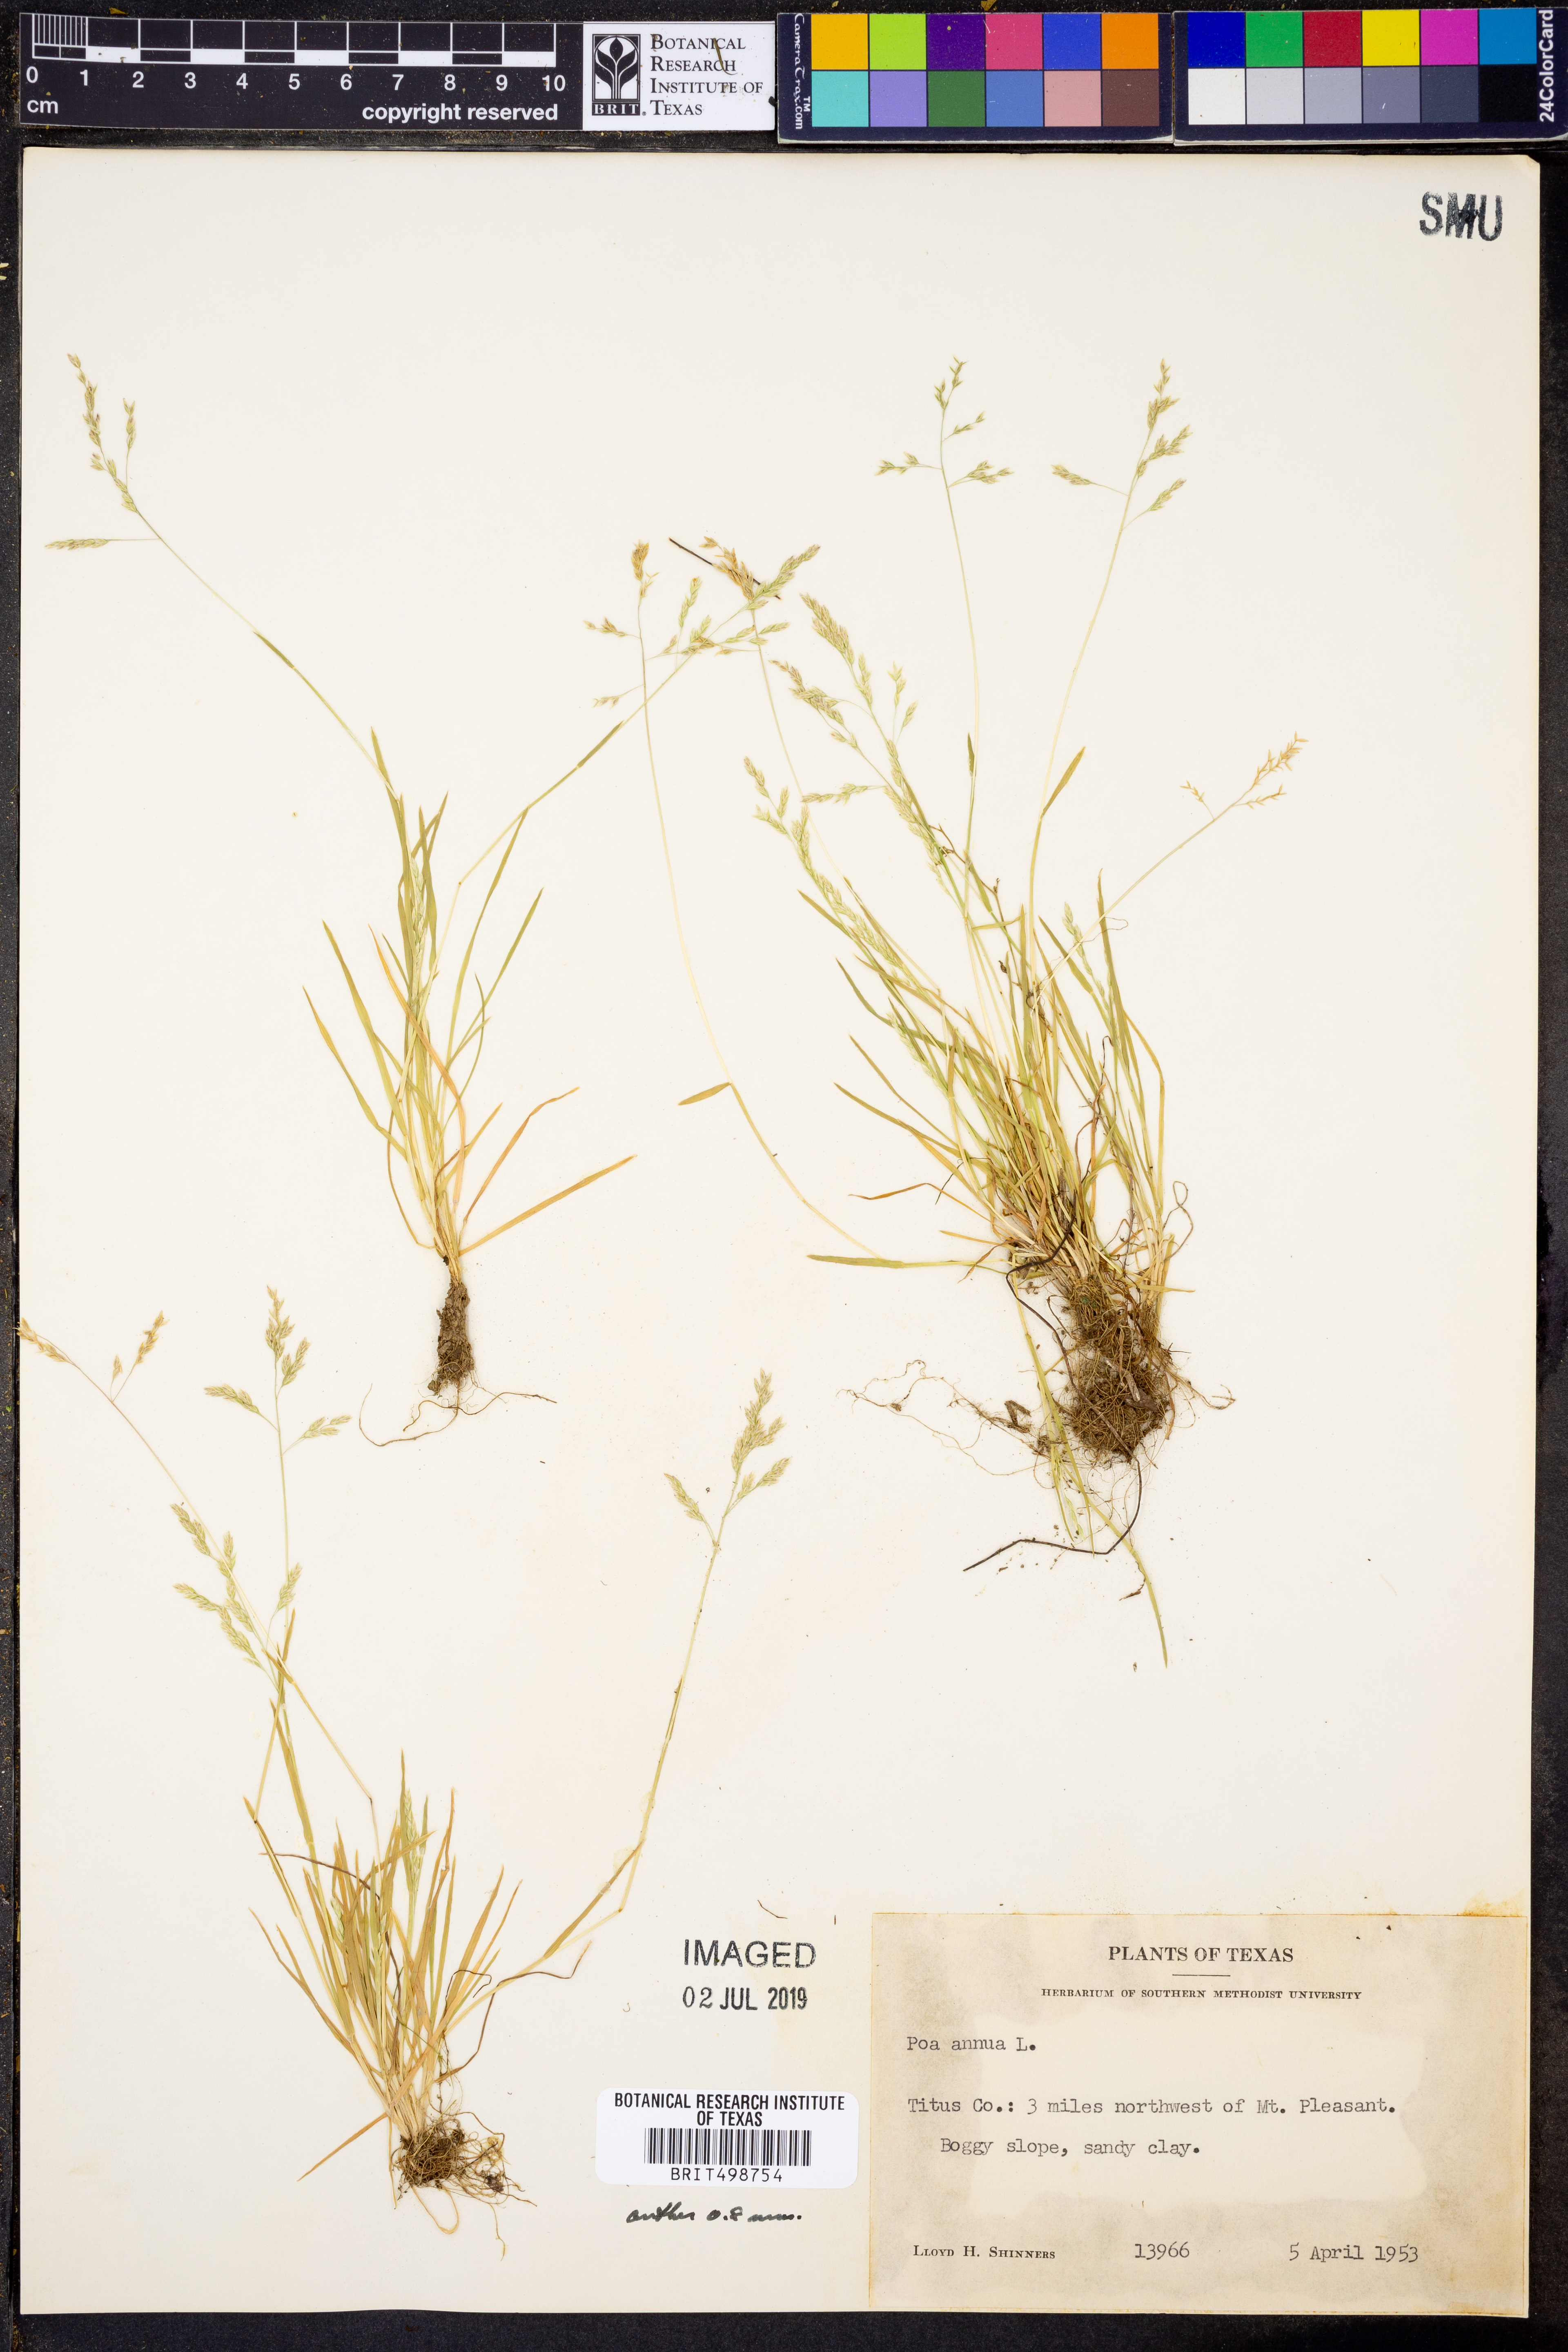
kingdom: Plantae
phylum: Tracheophyta
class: Liliopsida
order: Poales
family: Poaceae
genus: Poa
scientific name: Poa annua
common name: Annual bluegrass
